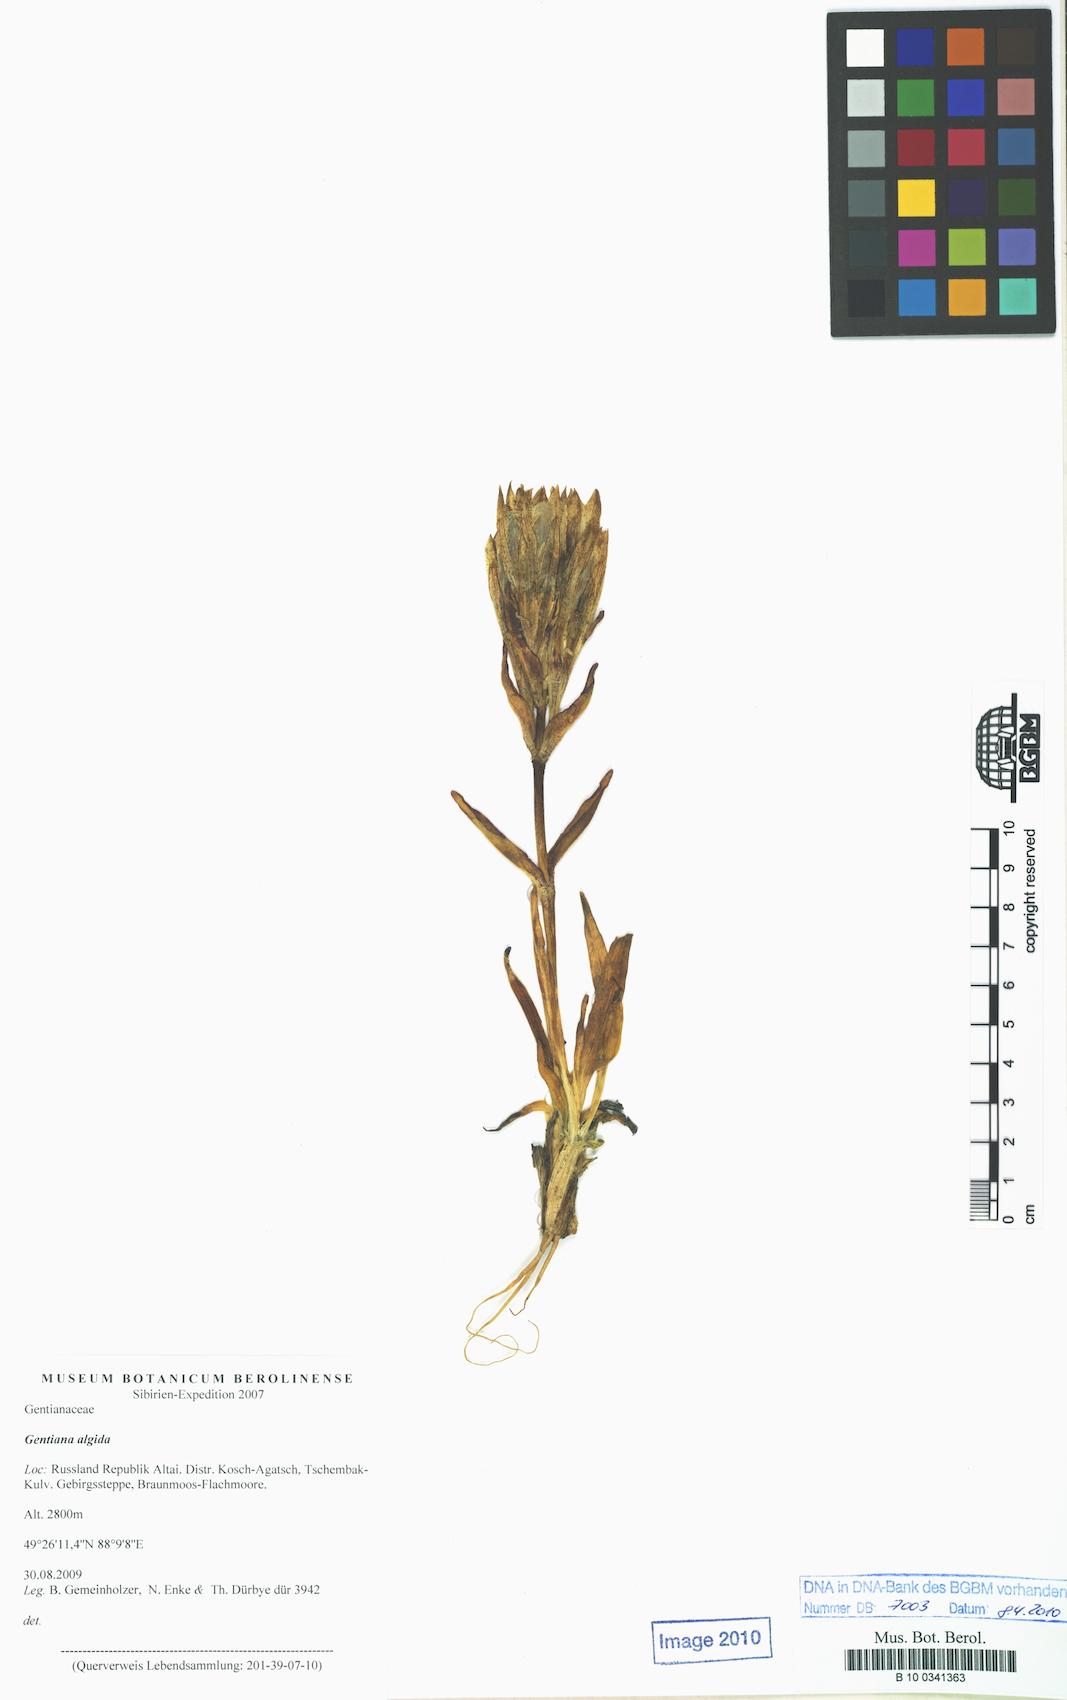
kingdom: Plantae
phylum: Tracheophyta
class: Magnoliopsida
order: Gentianales
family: Gentianaceae
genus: Gentiana
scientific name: Gentiana algida
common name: Arctic gentian
